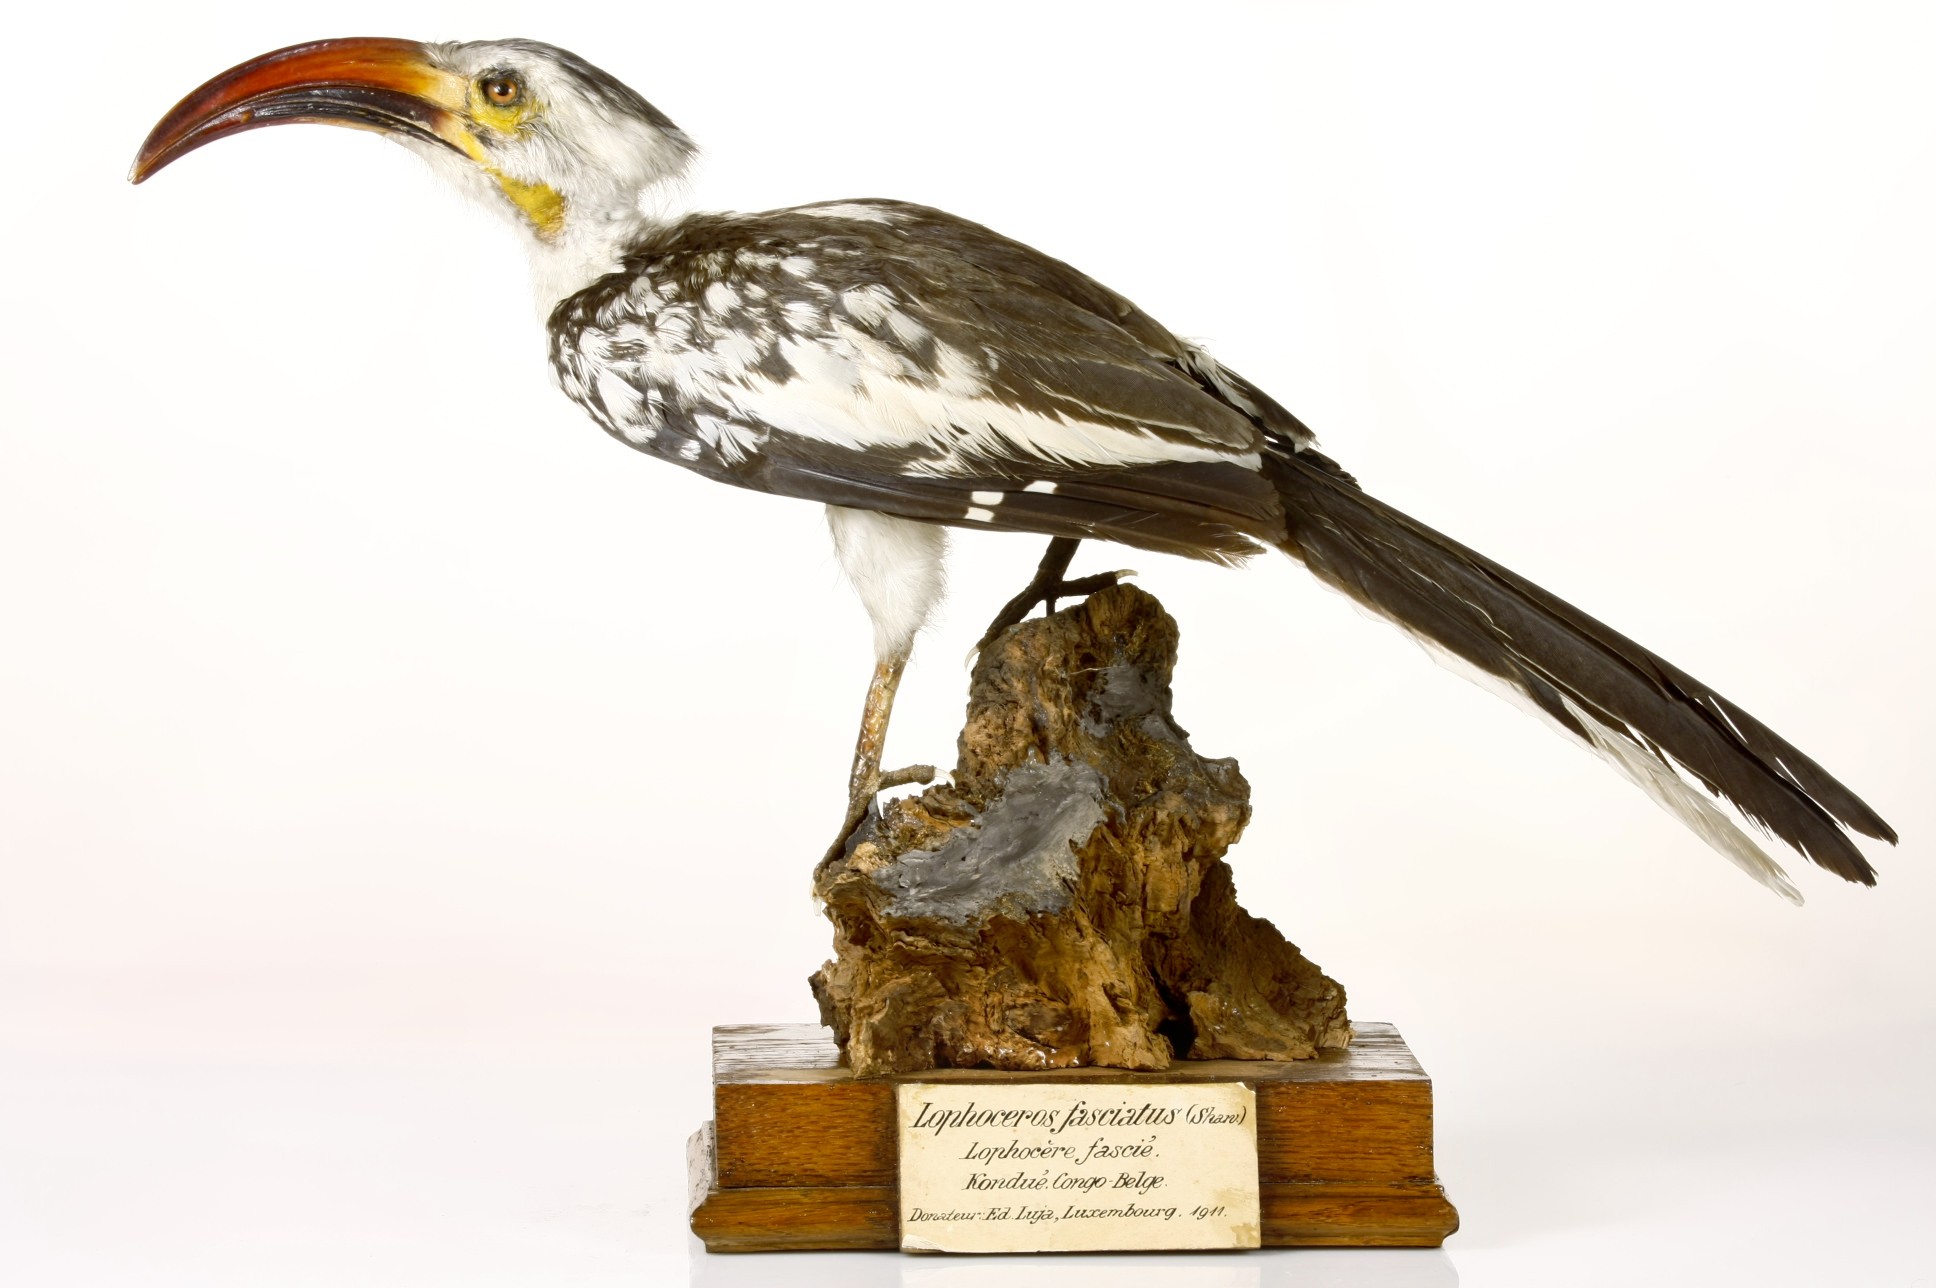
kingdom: Animalia
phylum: Chordata
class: Aves
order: Bucerotiformes
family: Bucerotidae
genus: Tockus
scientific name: Tockus erythrorhynchus
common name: Northern red-billed hornbill
